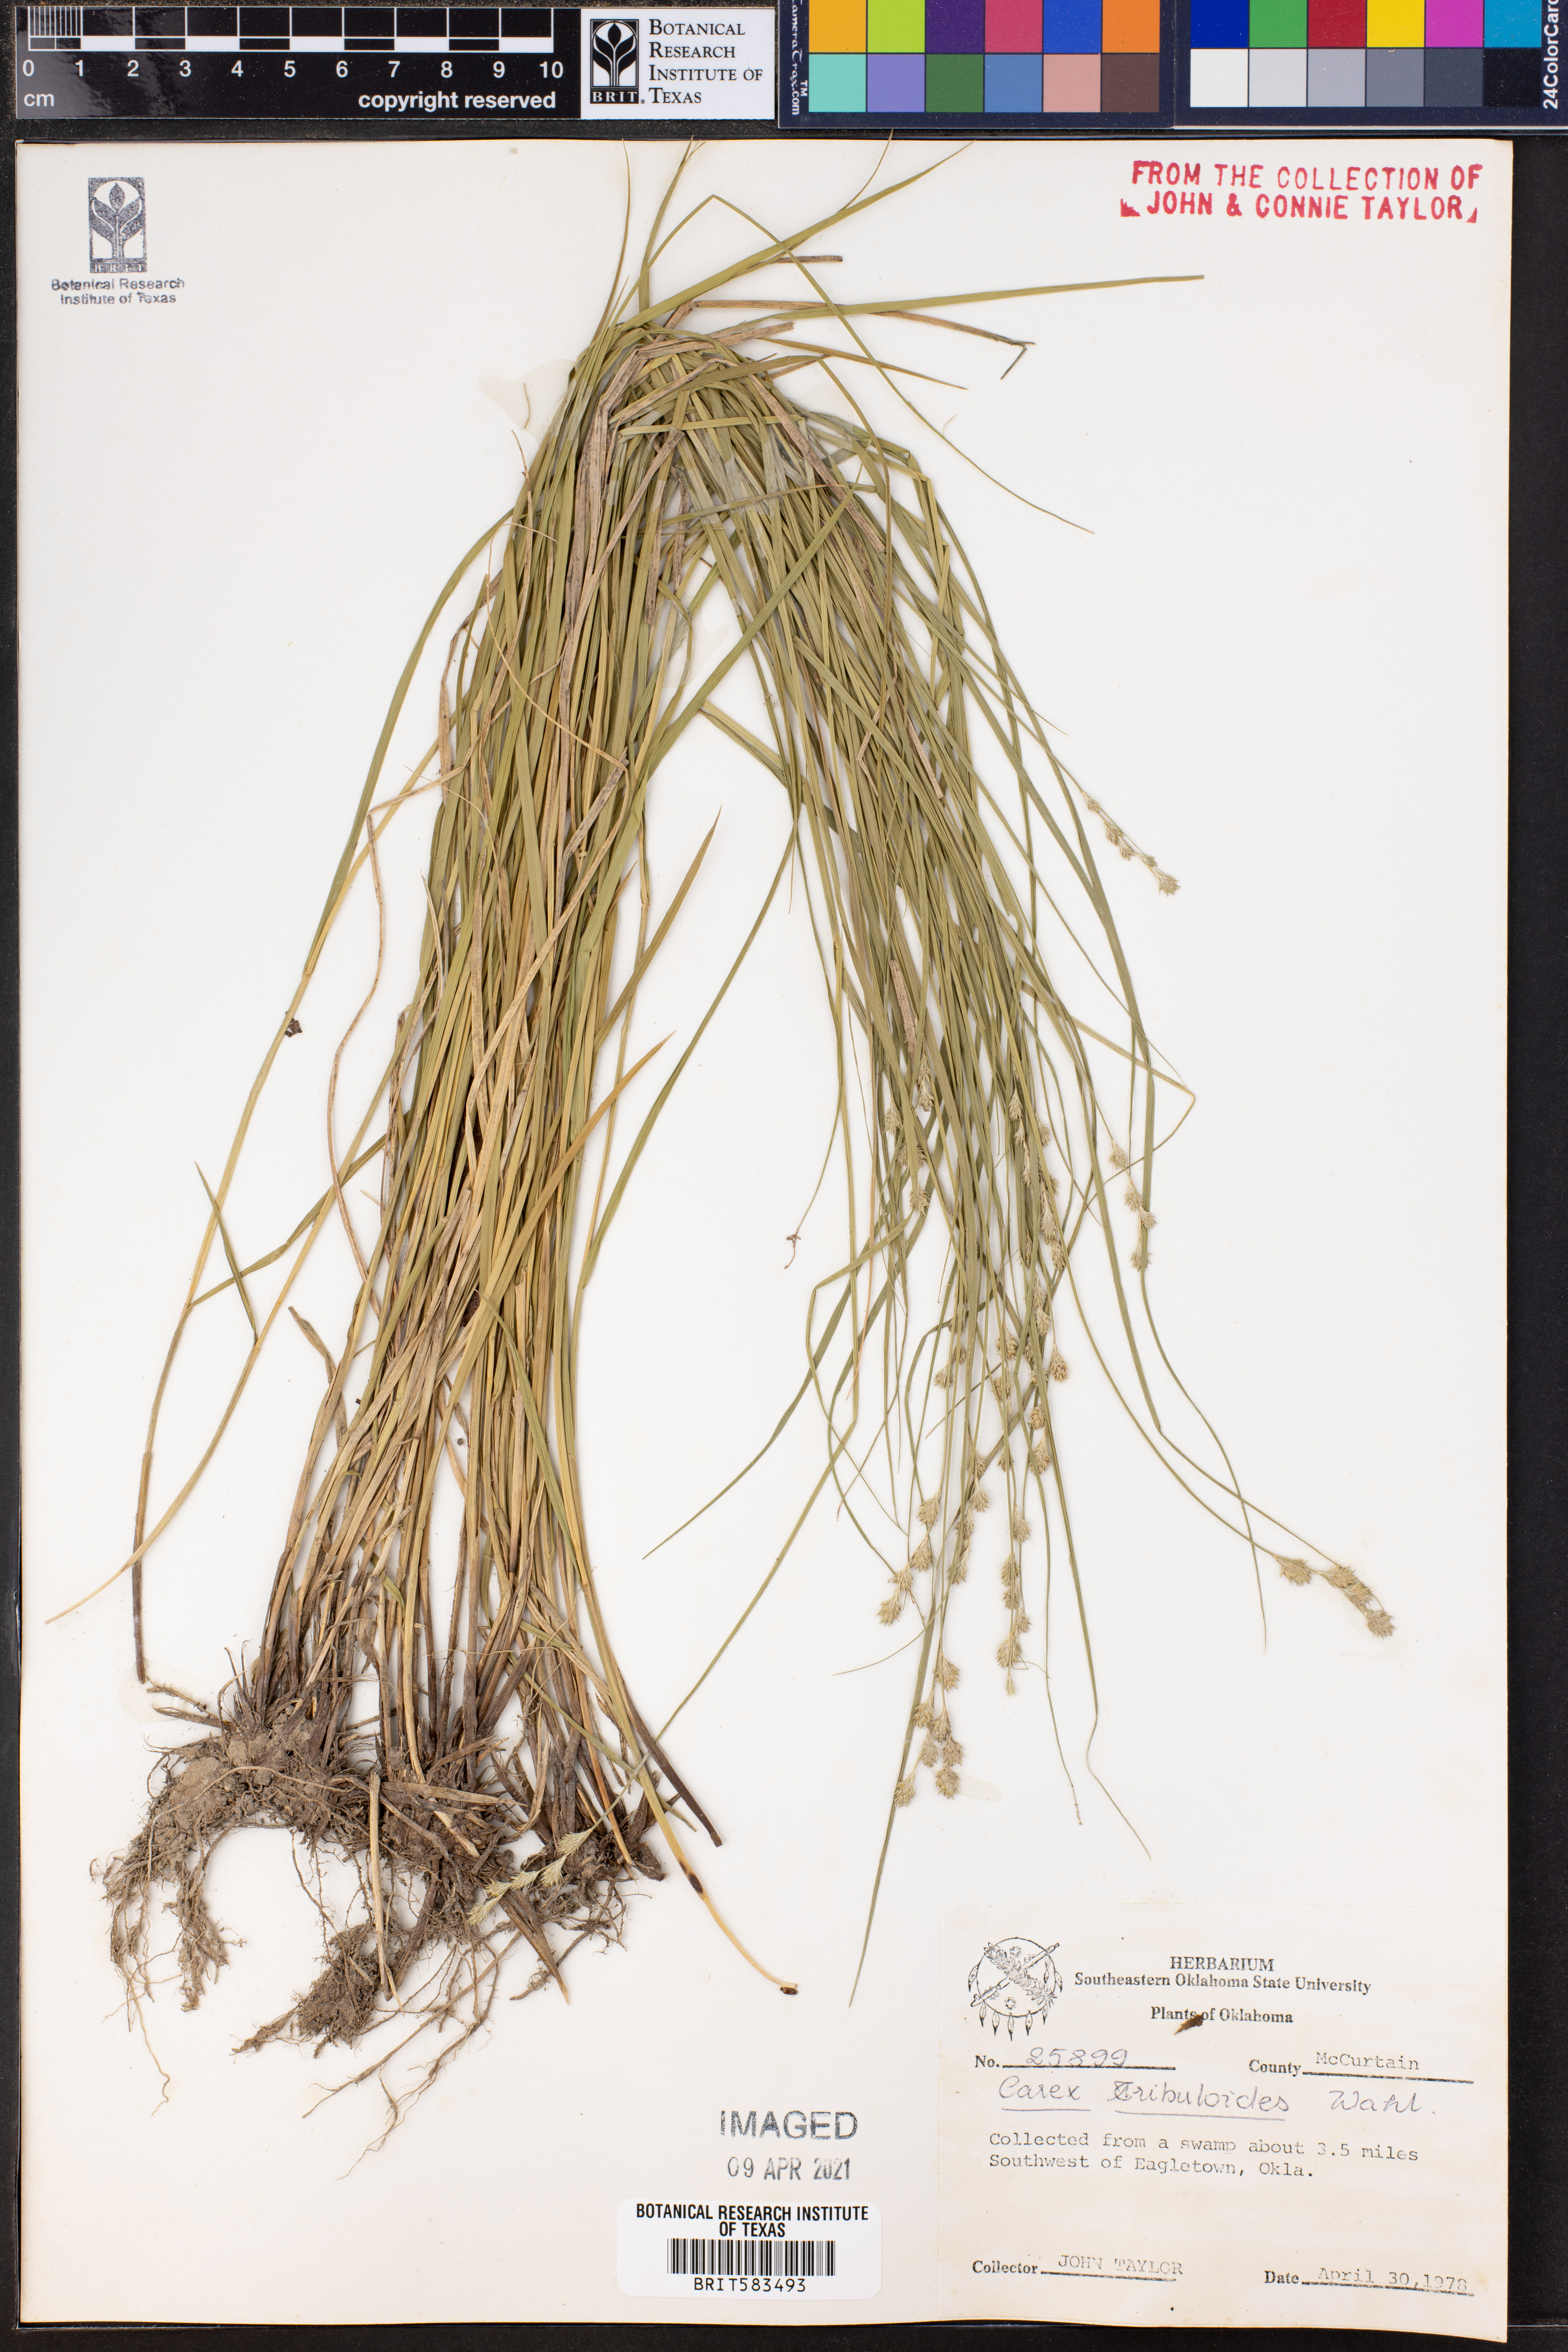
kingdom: Plantae
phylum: Tracheophyta
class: Liliopsida
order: Poales
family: Cyperaceae
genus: Carex
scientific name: Carex tribuloides
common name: Blunt broom sedge
